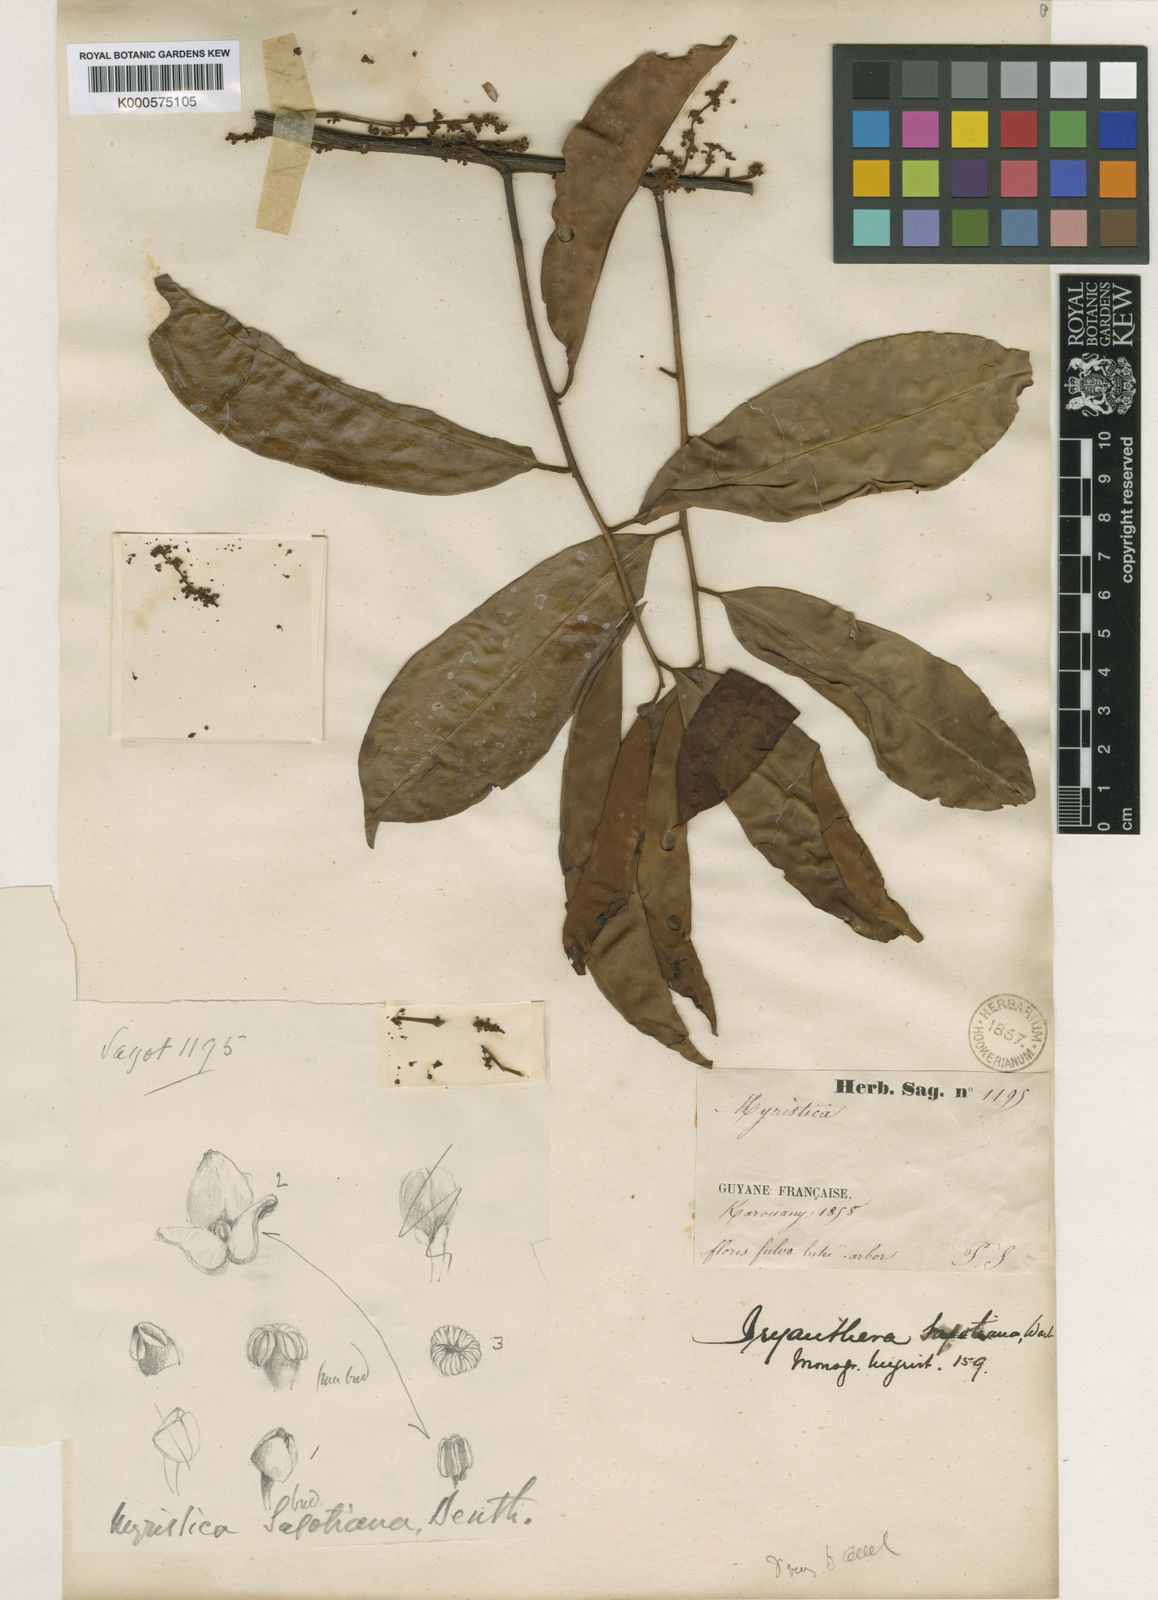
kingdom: Plantae
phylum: Tracheophyta
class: Magnoliopsida
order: Magnoliales
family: Myristicaceae
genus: Iryanthera
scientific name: Iryanthera sagotiana
